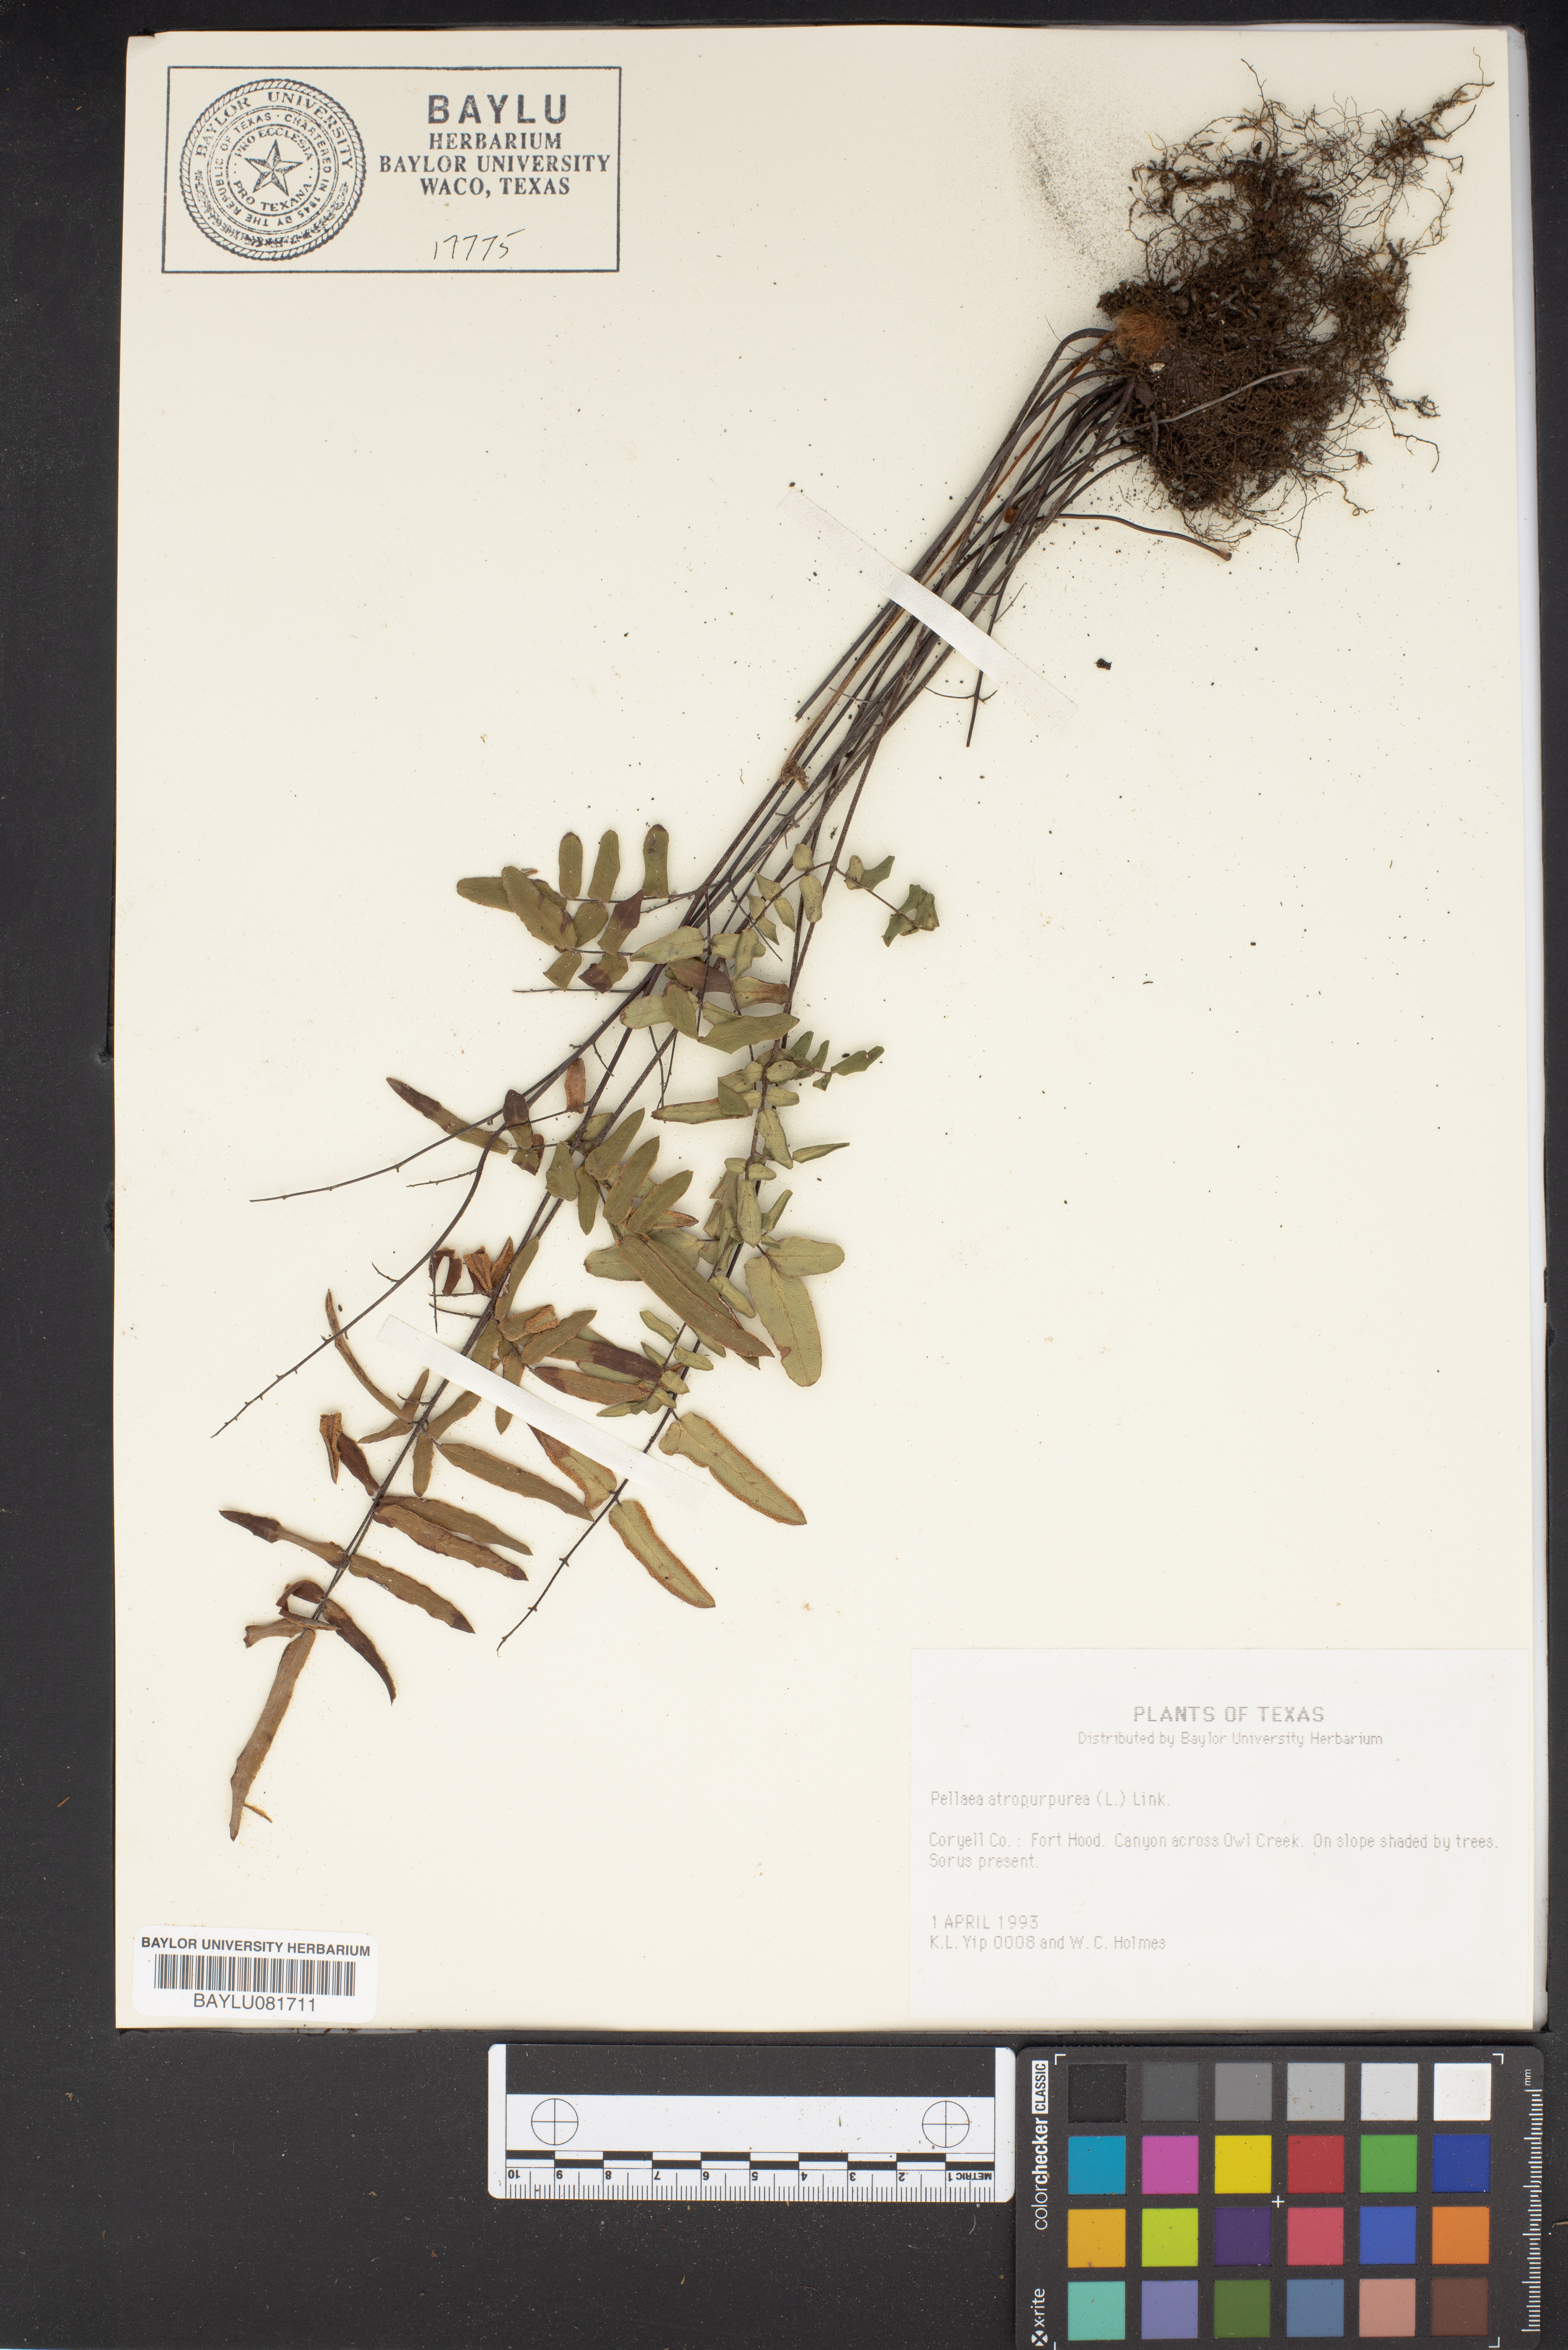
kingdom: Plantae
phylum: Tracheophyta
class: Polypodiopsida
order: Polypodiales
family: Pteridaceae
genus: Pellaea
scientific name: Pellaea atropurpurea
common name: Hairy cliffbrake
